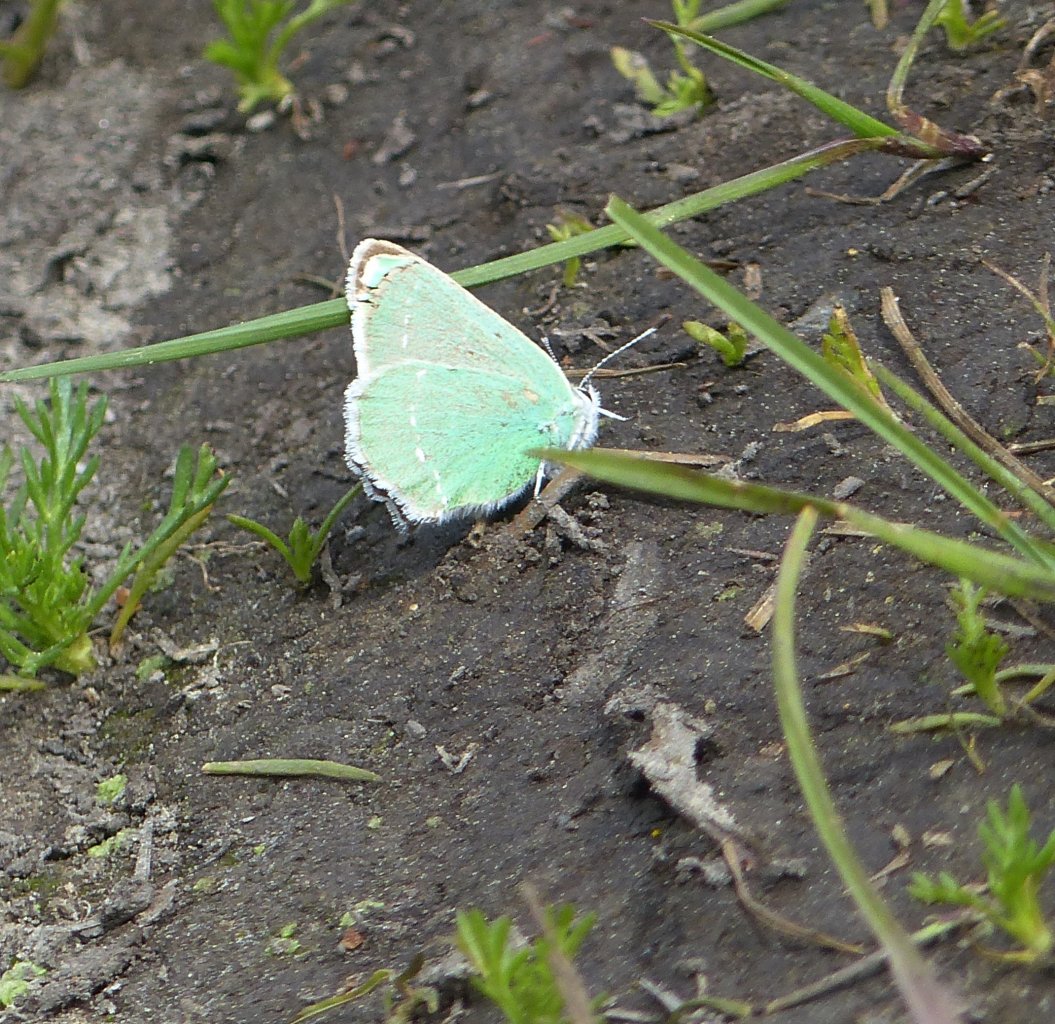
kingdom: Animalia
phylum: Arthropoda
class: Insecta
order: Lepidoptera
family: Lycaenidae
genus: Callophrys
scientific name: Callophrys affinis
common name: Western Green Hairstreak
